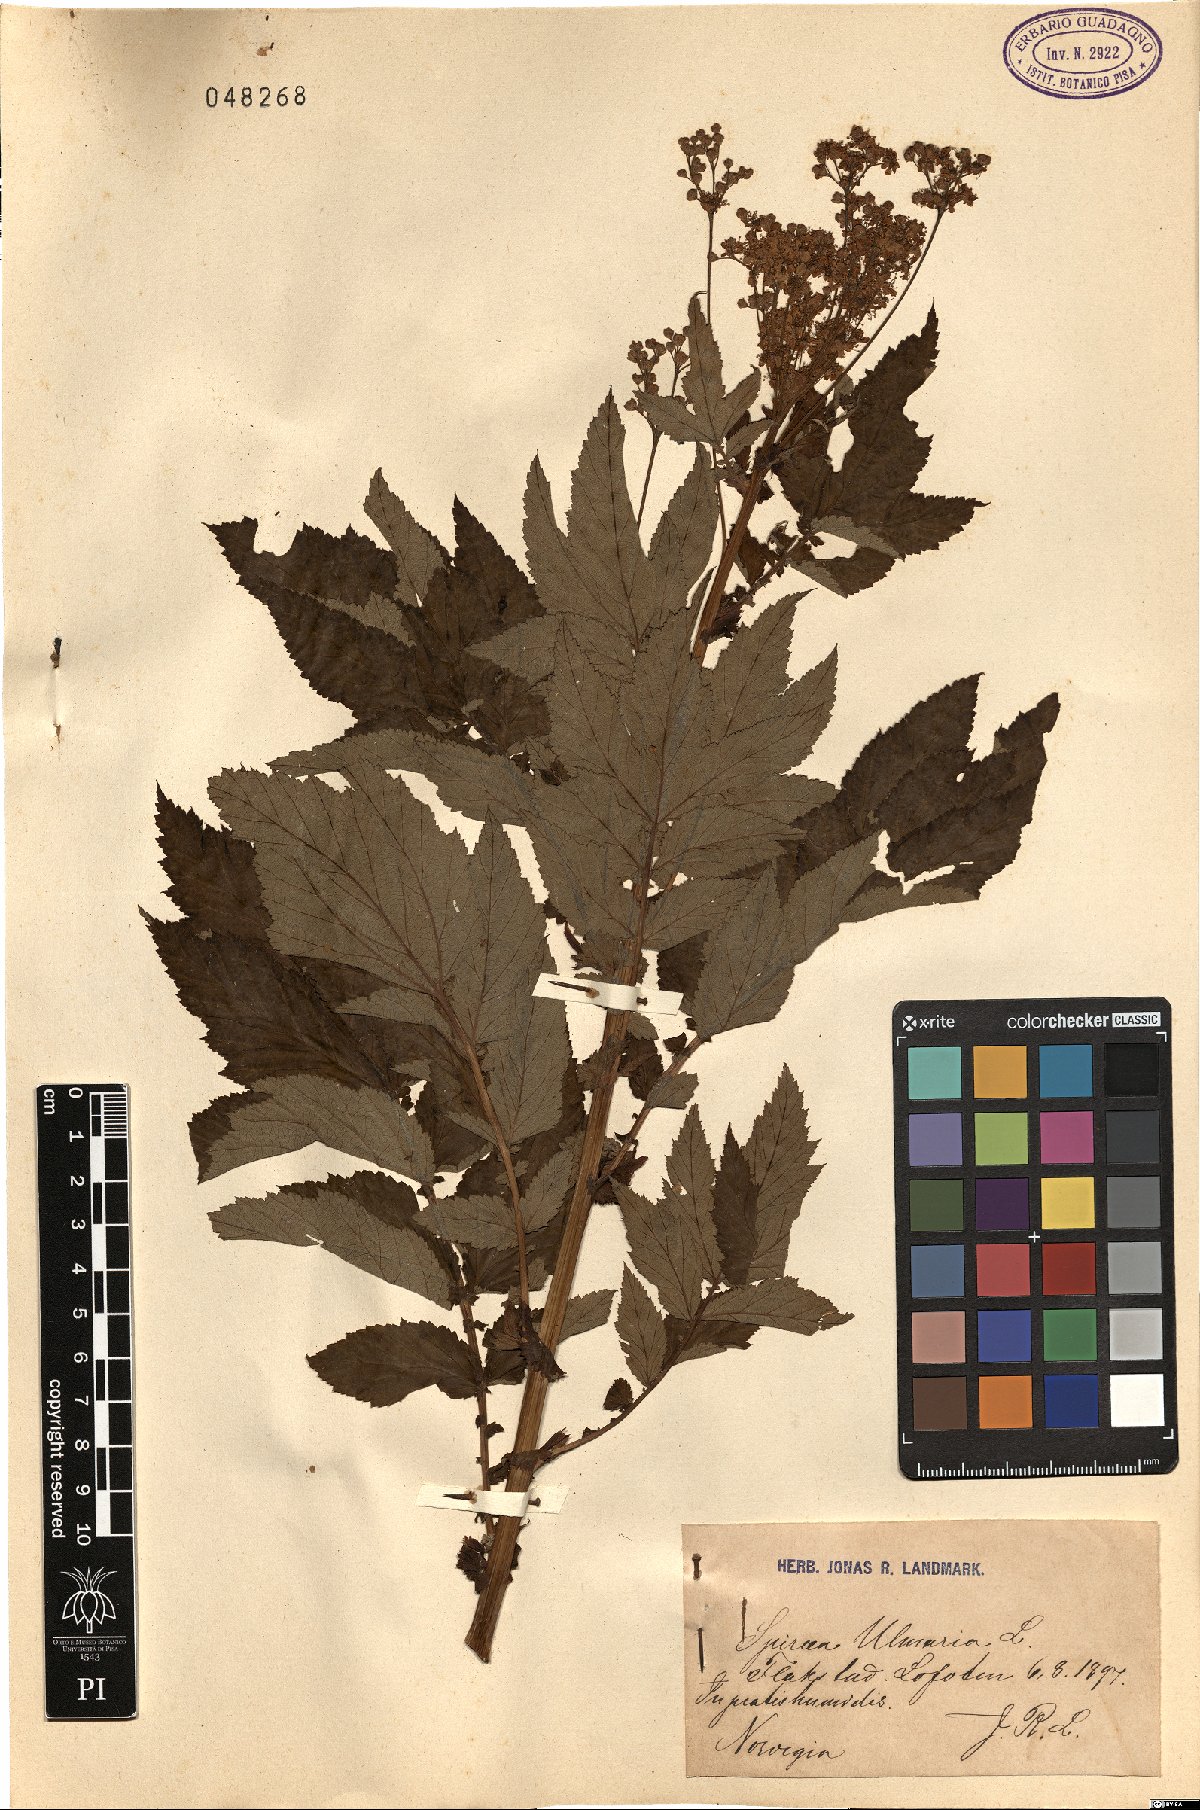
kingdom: Plantae
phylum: Tracheophyta
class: Magnoliopsida
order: Rosales
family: Rosaceae
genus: Filipendula
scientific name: Filipendula ulmaria
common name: Meadowsweet
